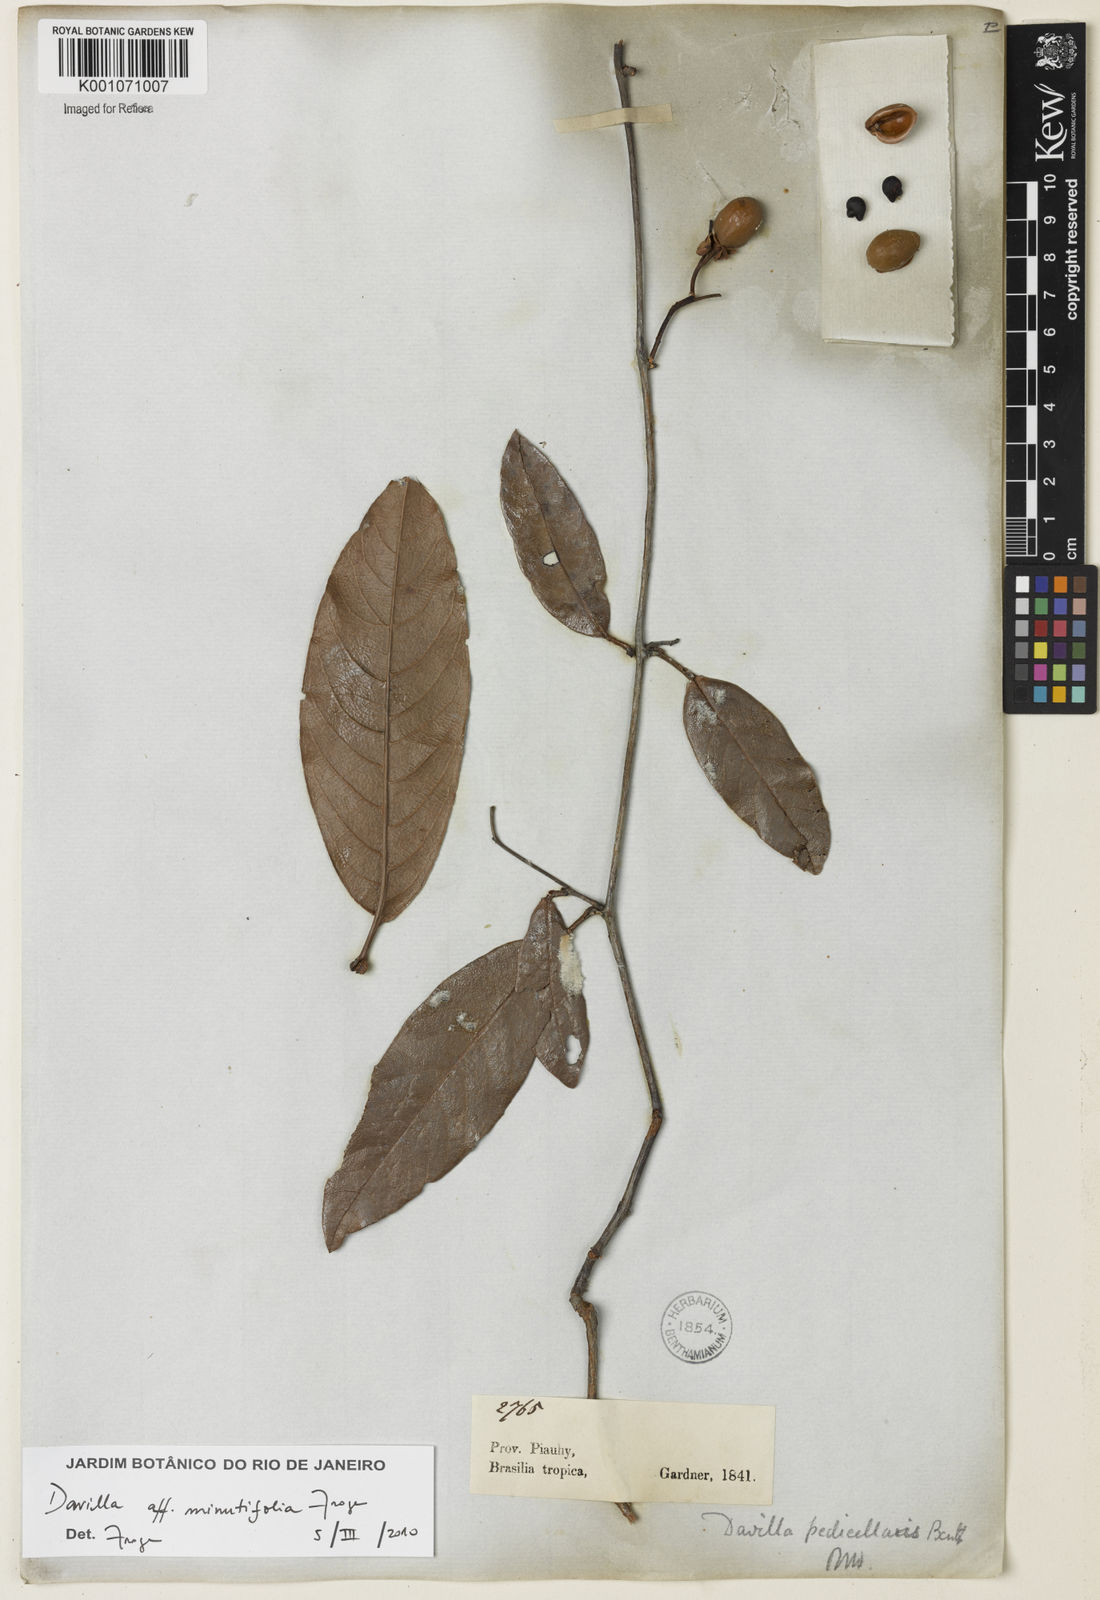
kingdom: Plantae
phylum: Tracheophyta
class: Magnoliopsida
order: Dilleniales
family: Dilleniaceae
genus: Davilla
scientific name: Davilla minutifolia
